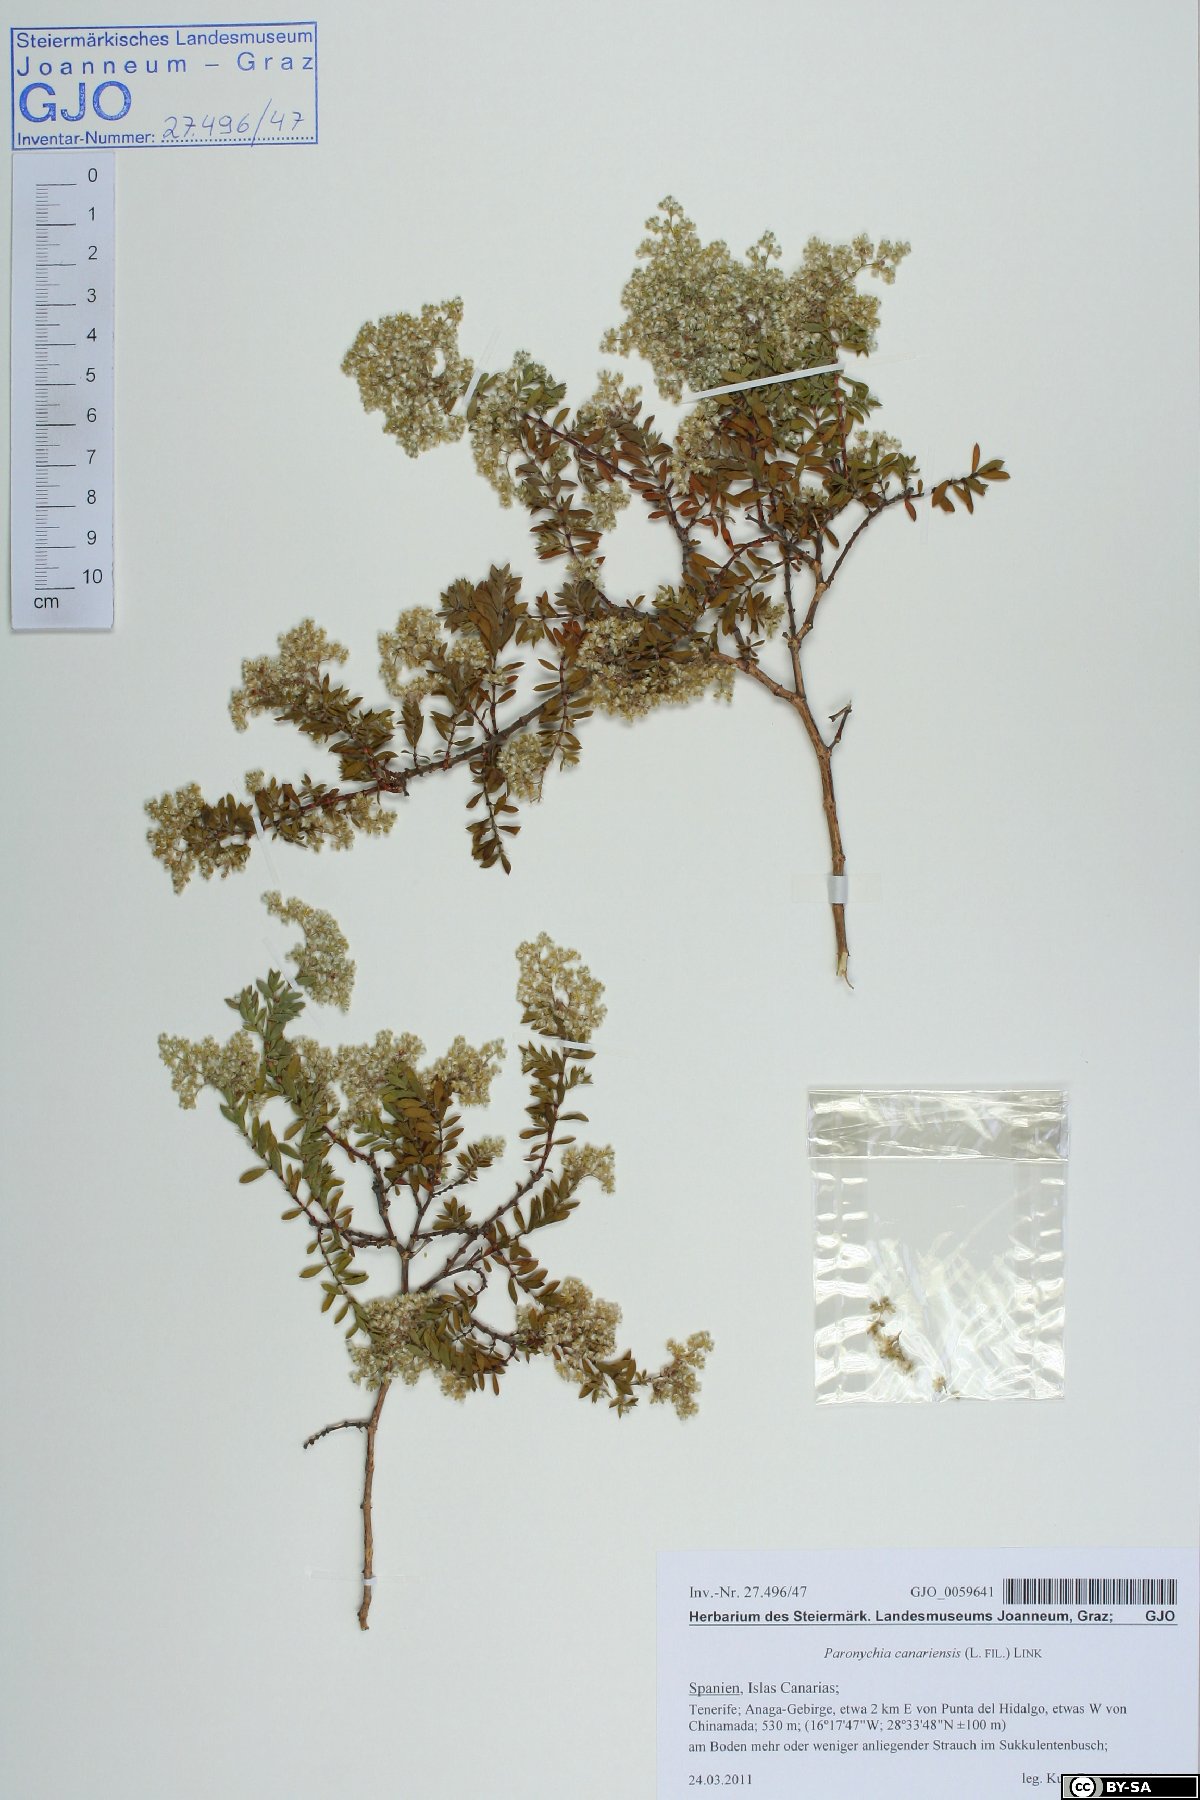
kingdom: Plantae
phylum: Tracheophyta
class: Magnoliopsida
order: Caryophyllales
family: Caryophyllaceae
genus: Paronychia
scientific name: Paronychia canariensis
